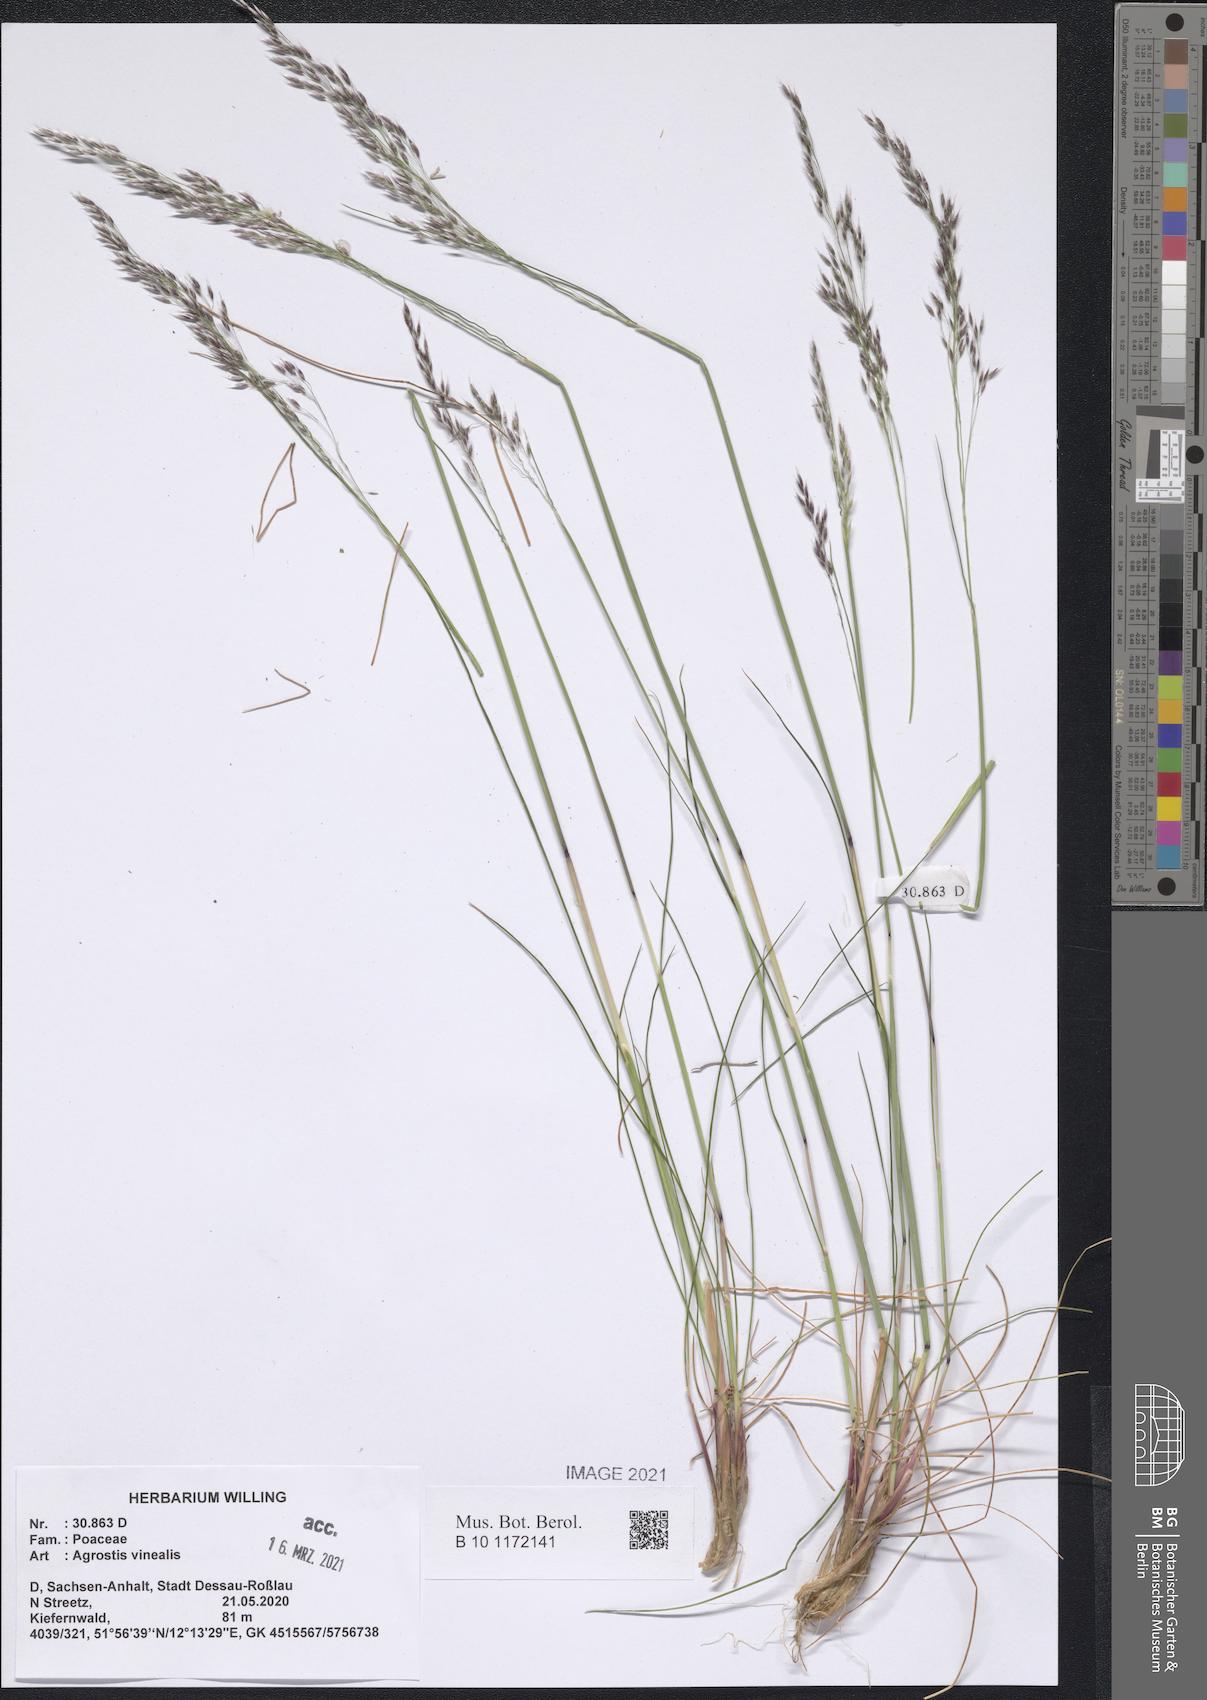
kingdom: Plantae
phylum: Tracheophyta
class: Liliopsida
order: Poales
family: Poaceae
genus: Agrostis
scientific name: Agrostis vinealis
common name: Brown bent
